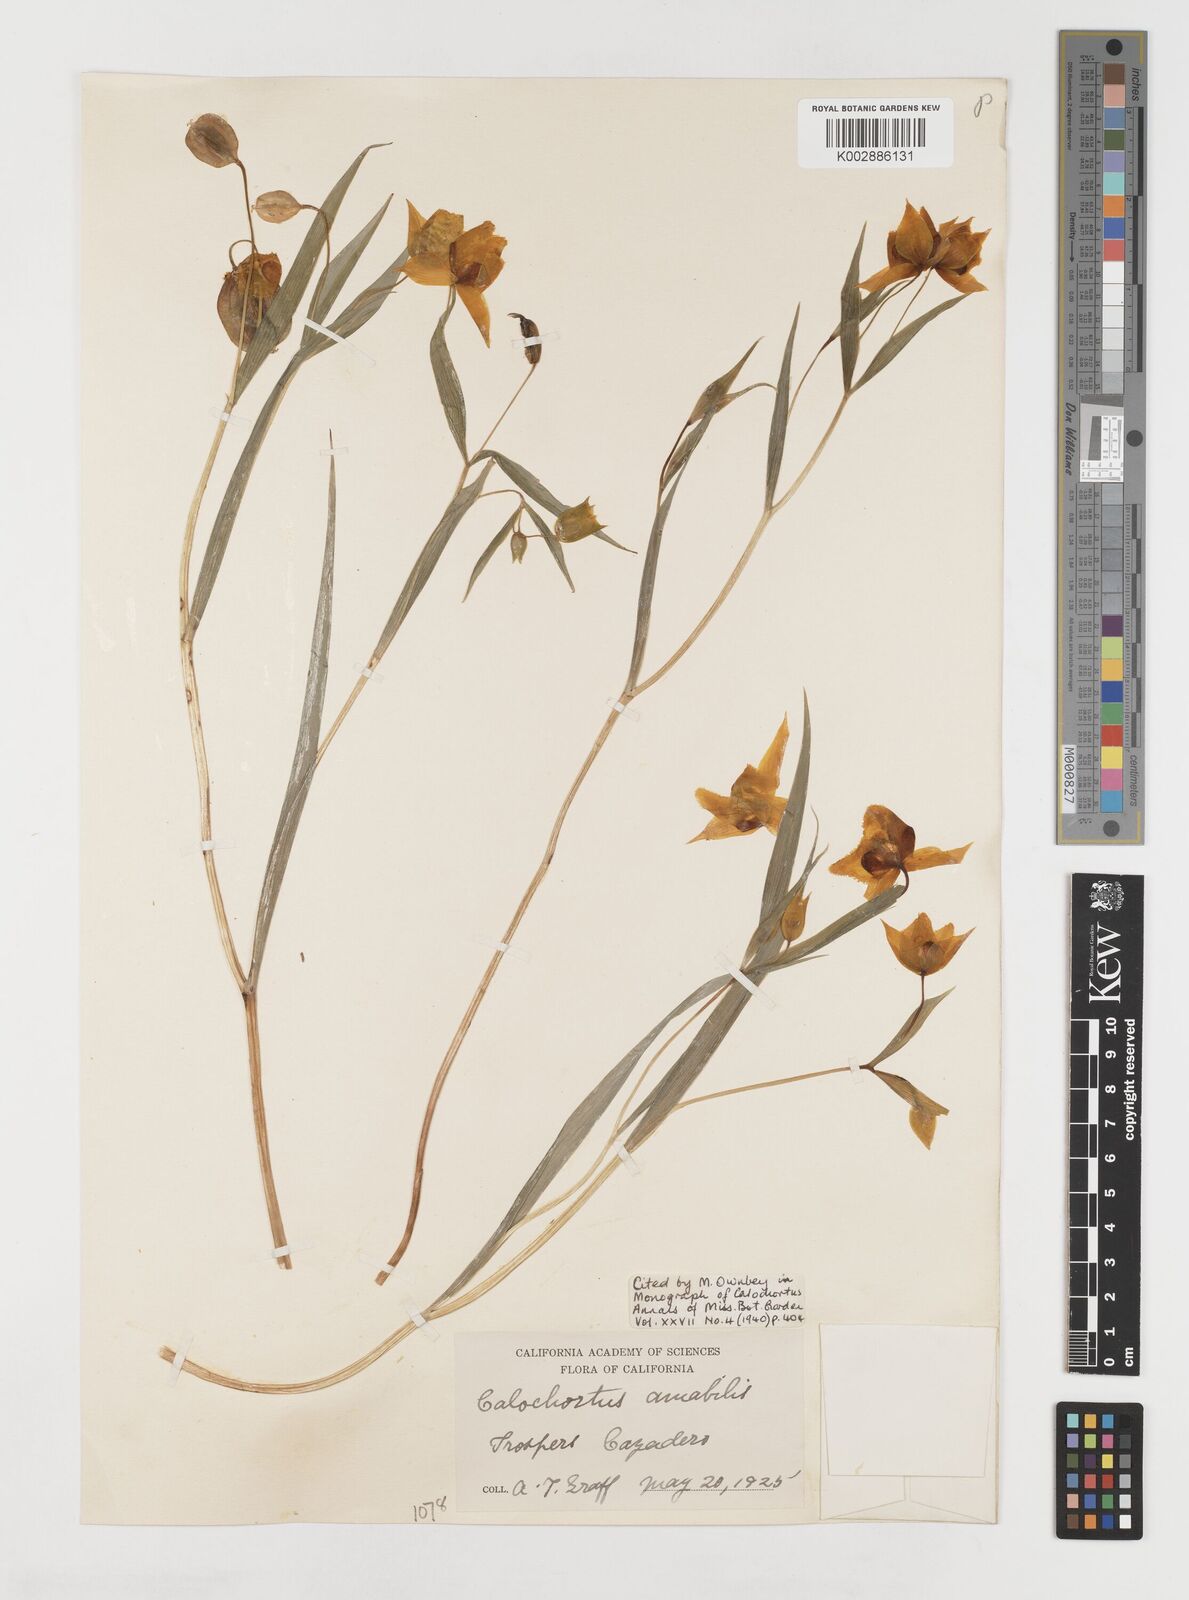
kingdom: Plantae
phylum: Tracheophyta
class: Liliopsida
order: Liliales
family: Liliaceae
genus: Calochortus
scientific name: Calochortus amabilis
